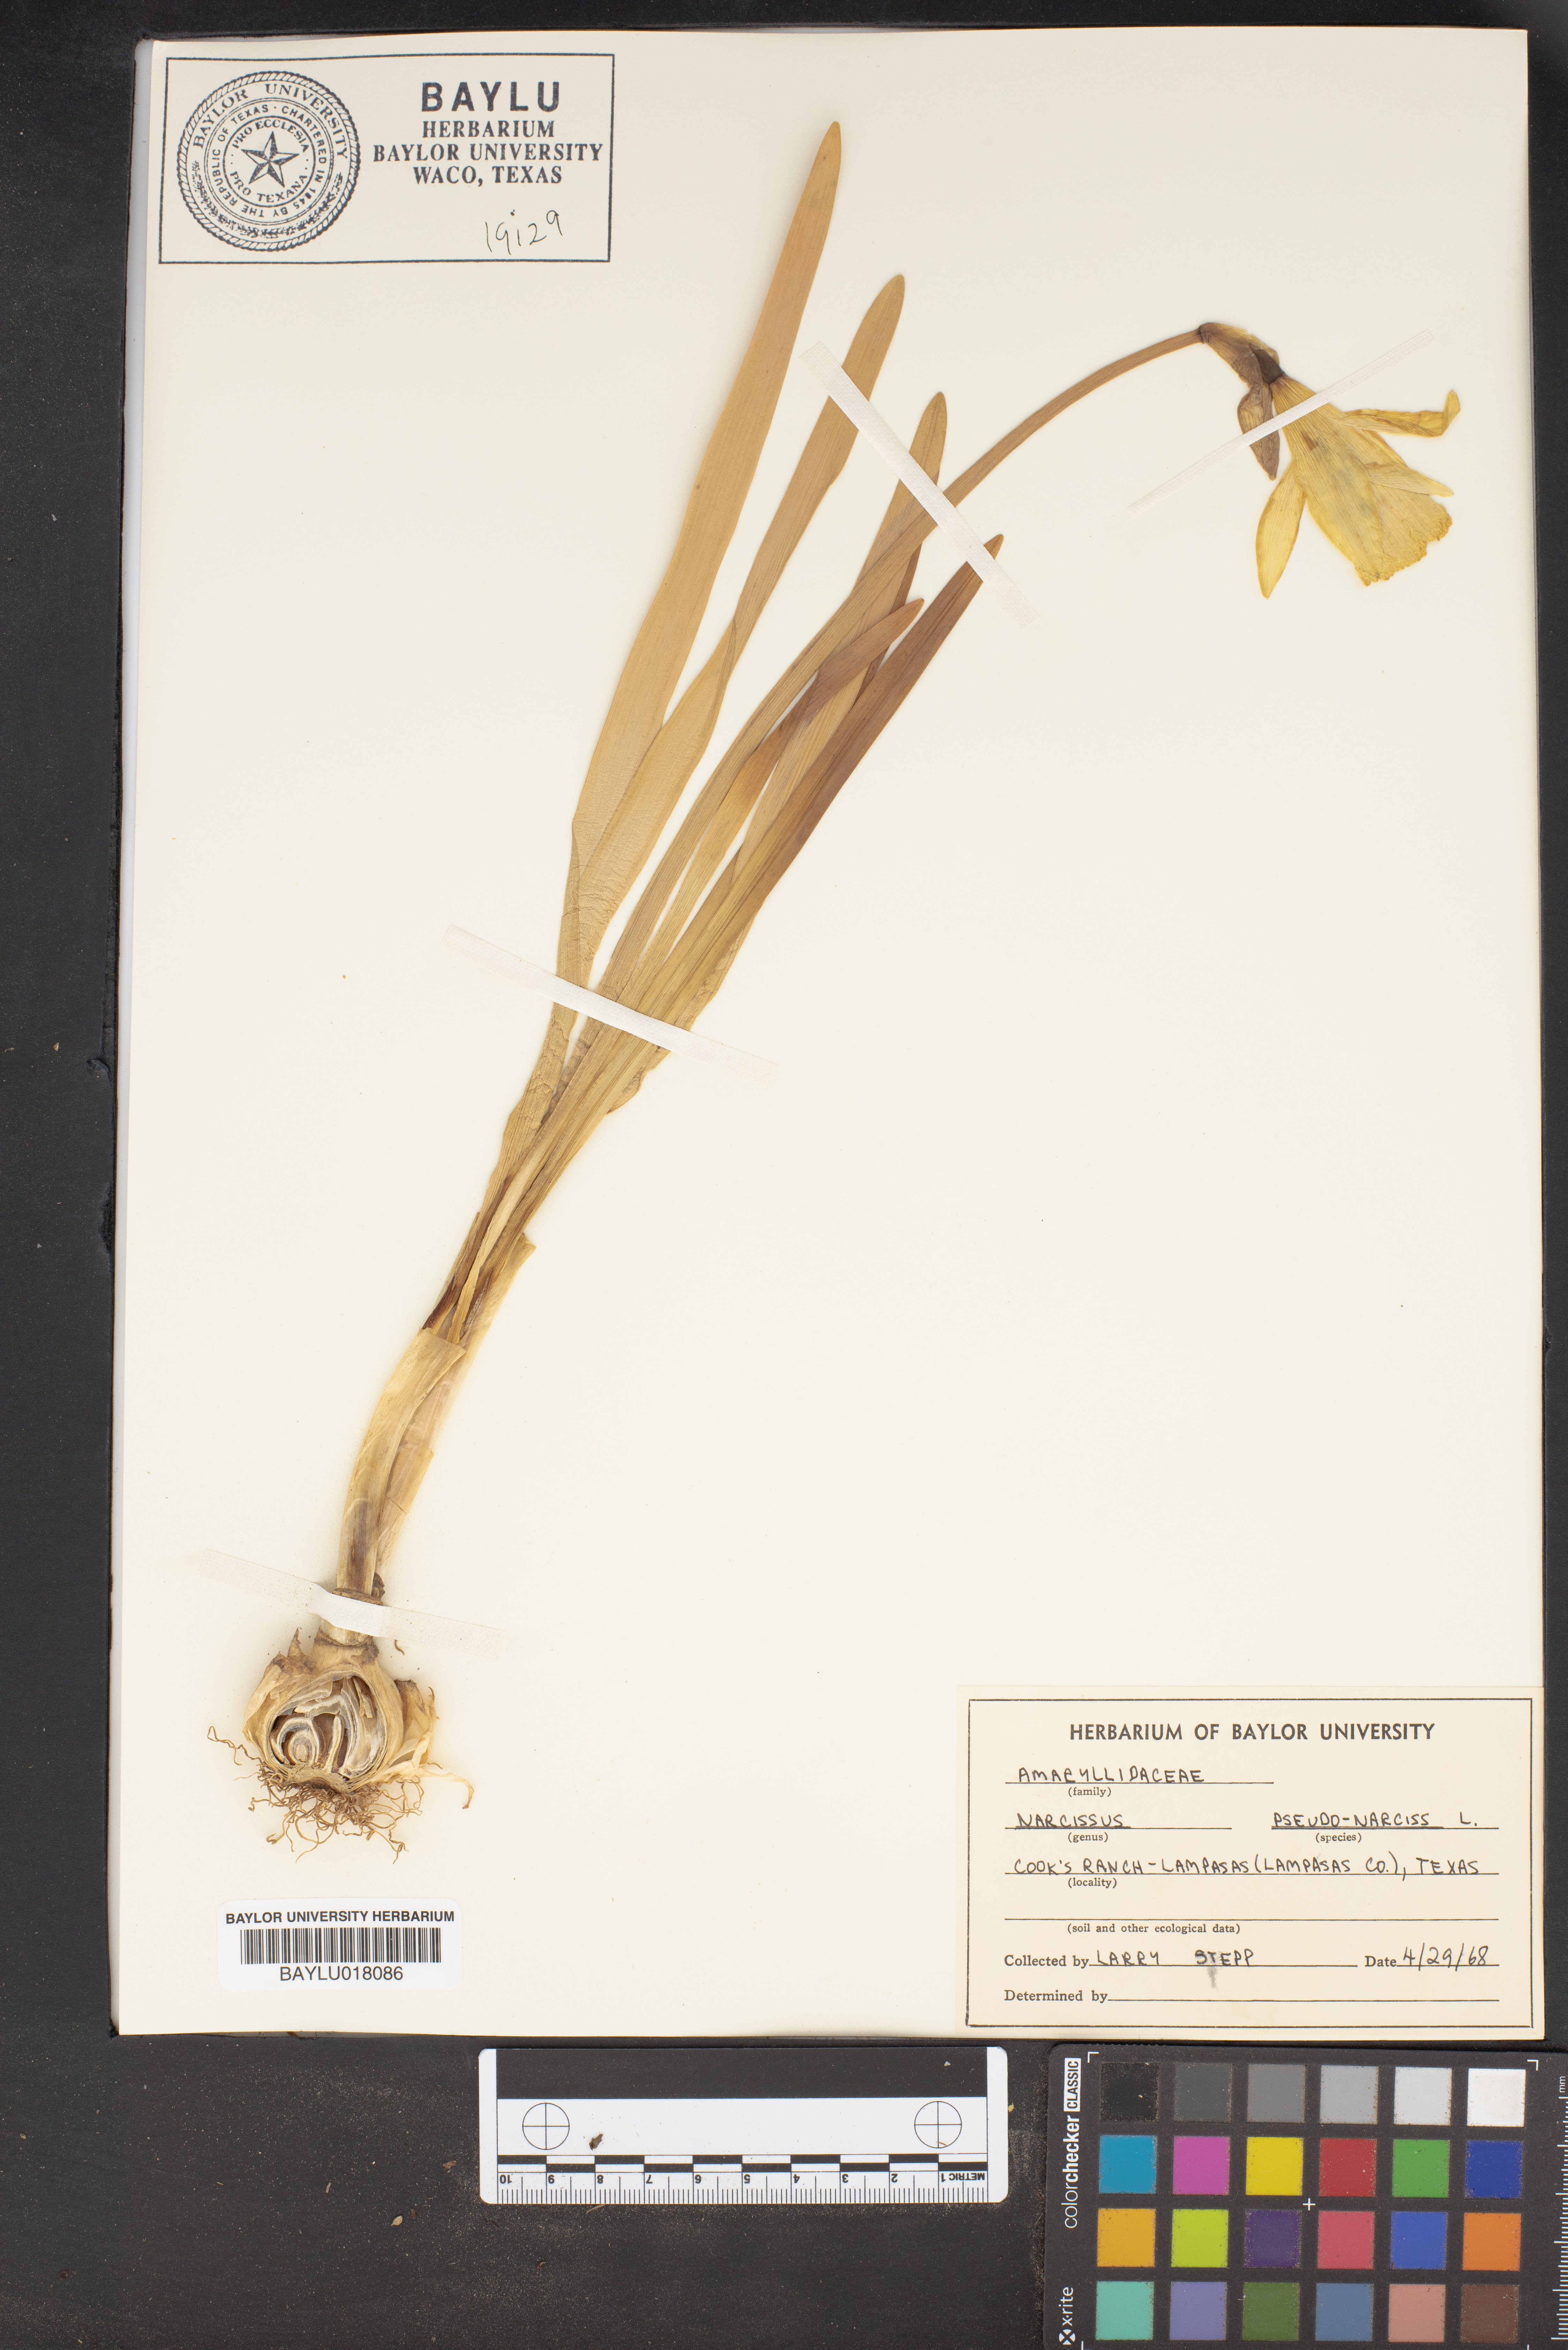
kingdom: Plantae
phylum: Tracheophyta
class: Liliopsida
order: Asparagales
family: Amaryllidaceae
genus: Narcissus
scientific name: Narcissus pseudonarcissus
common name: Daffodil
